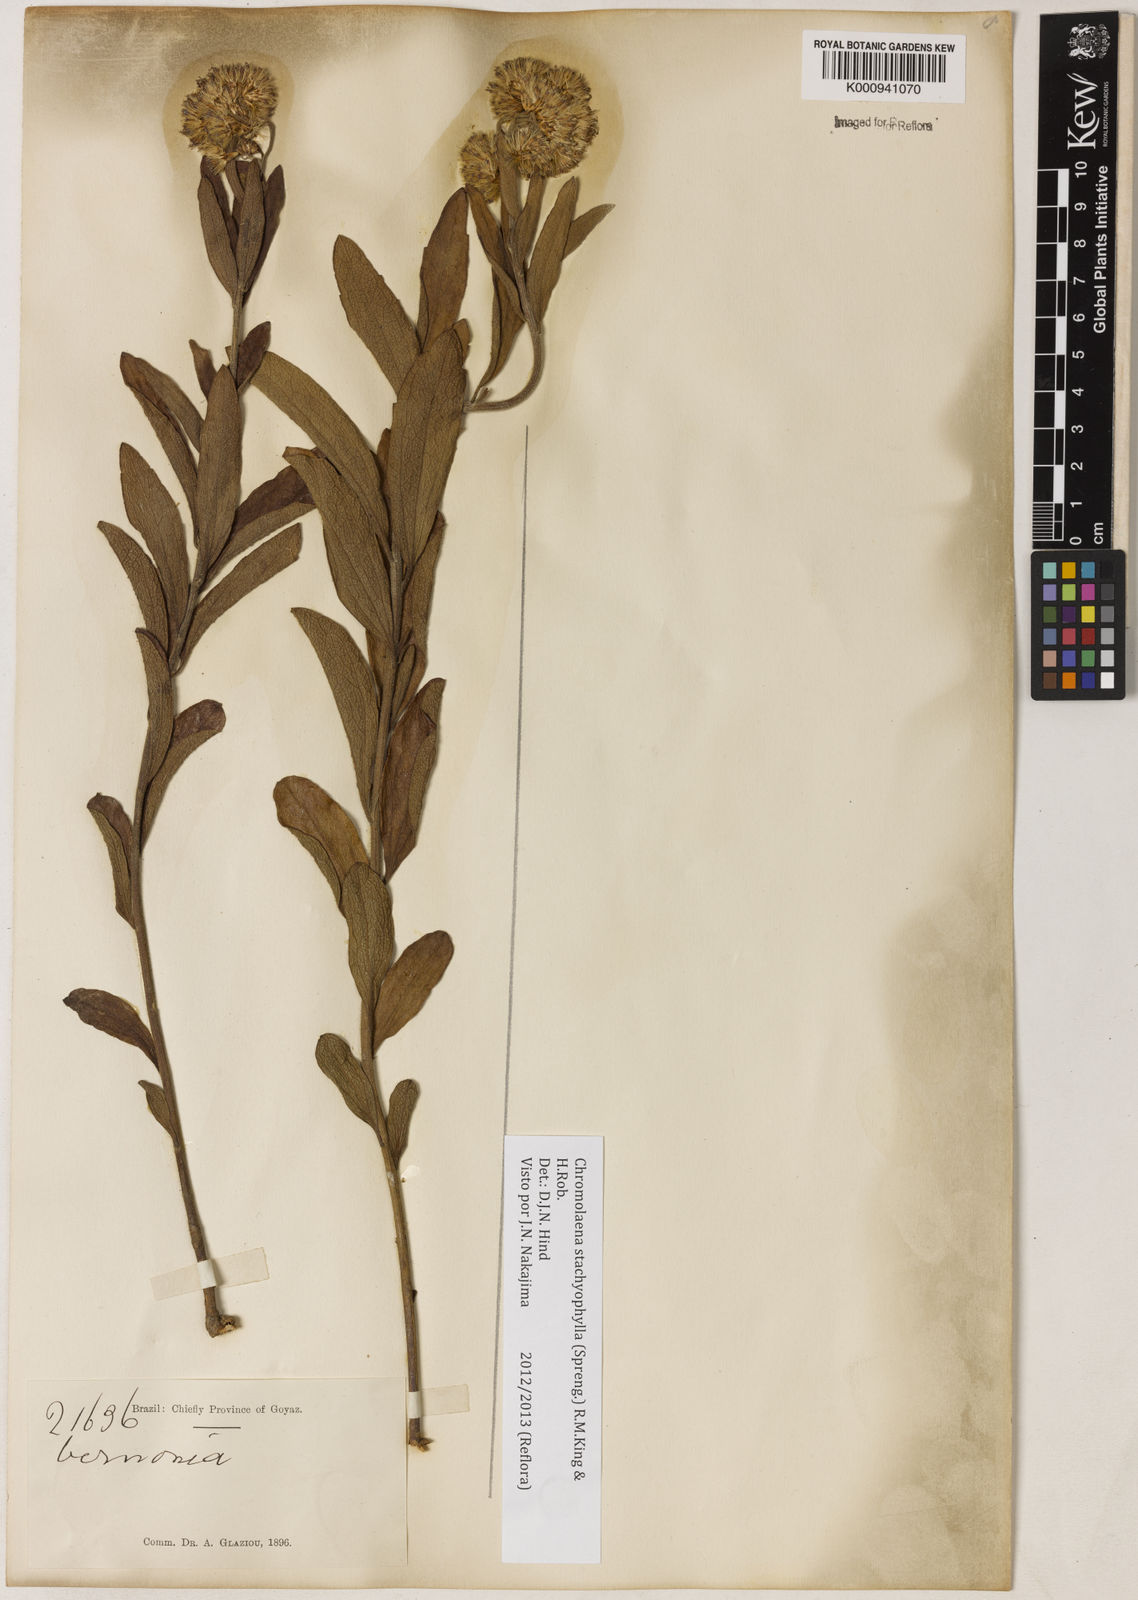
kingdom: Plantae
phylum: Tracheophyta
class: Magnoliopsida
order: Asterales
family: Asteraceae
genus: Chromolaena
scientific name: Chromolaena stachyophylla
